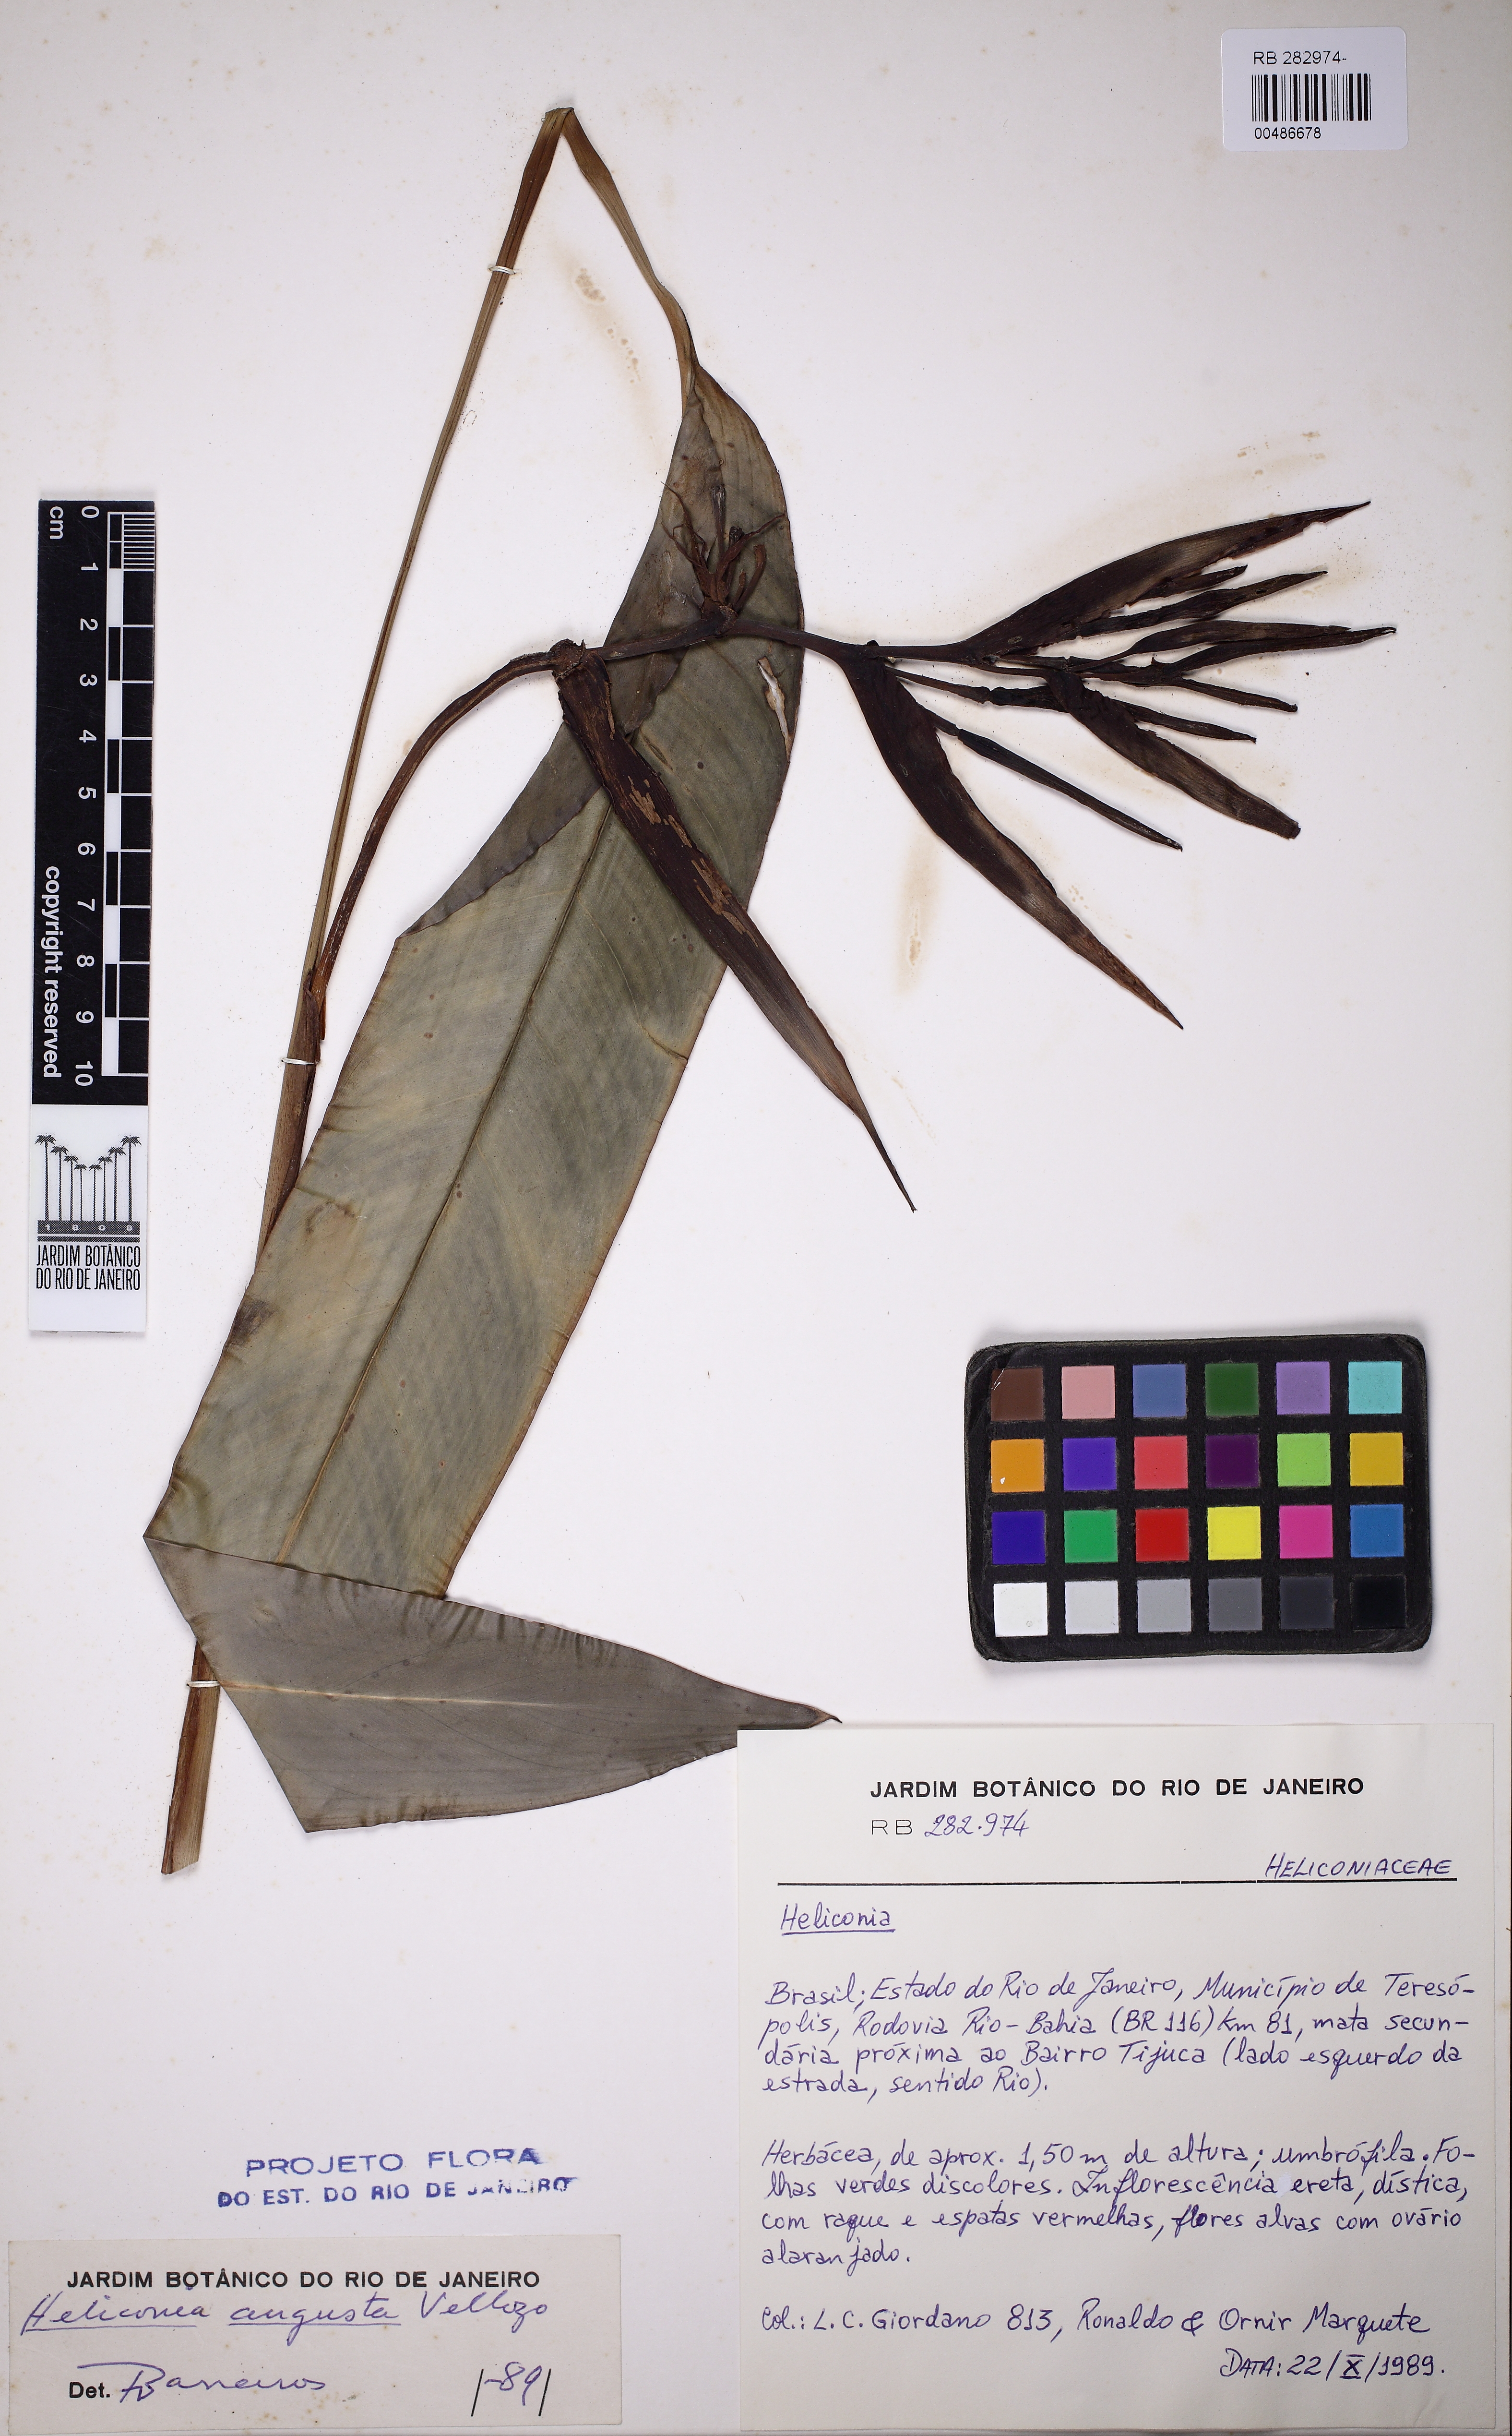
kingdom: Plantae
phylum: Tracheophyta
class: Liliopsida
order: Zingiberales
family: Heliconiaceae
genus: Heliconia
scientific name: Heliconia angusta
